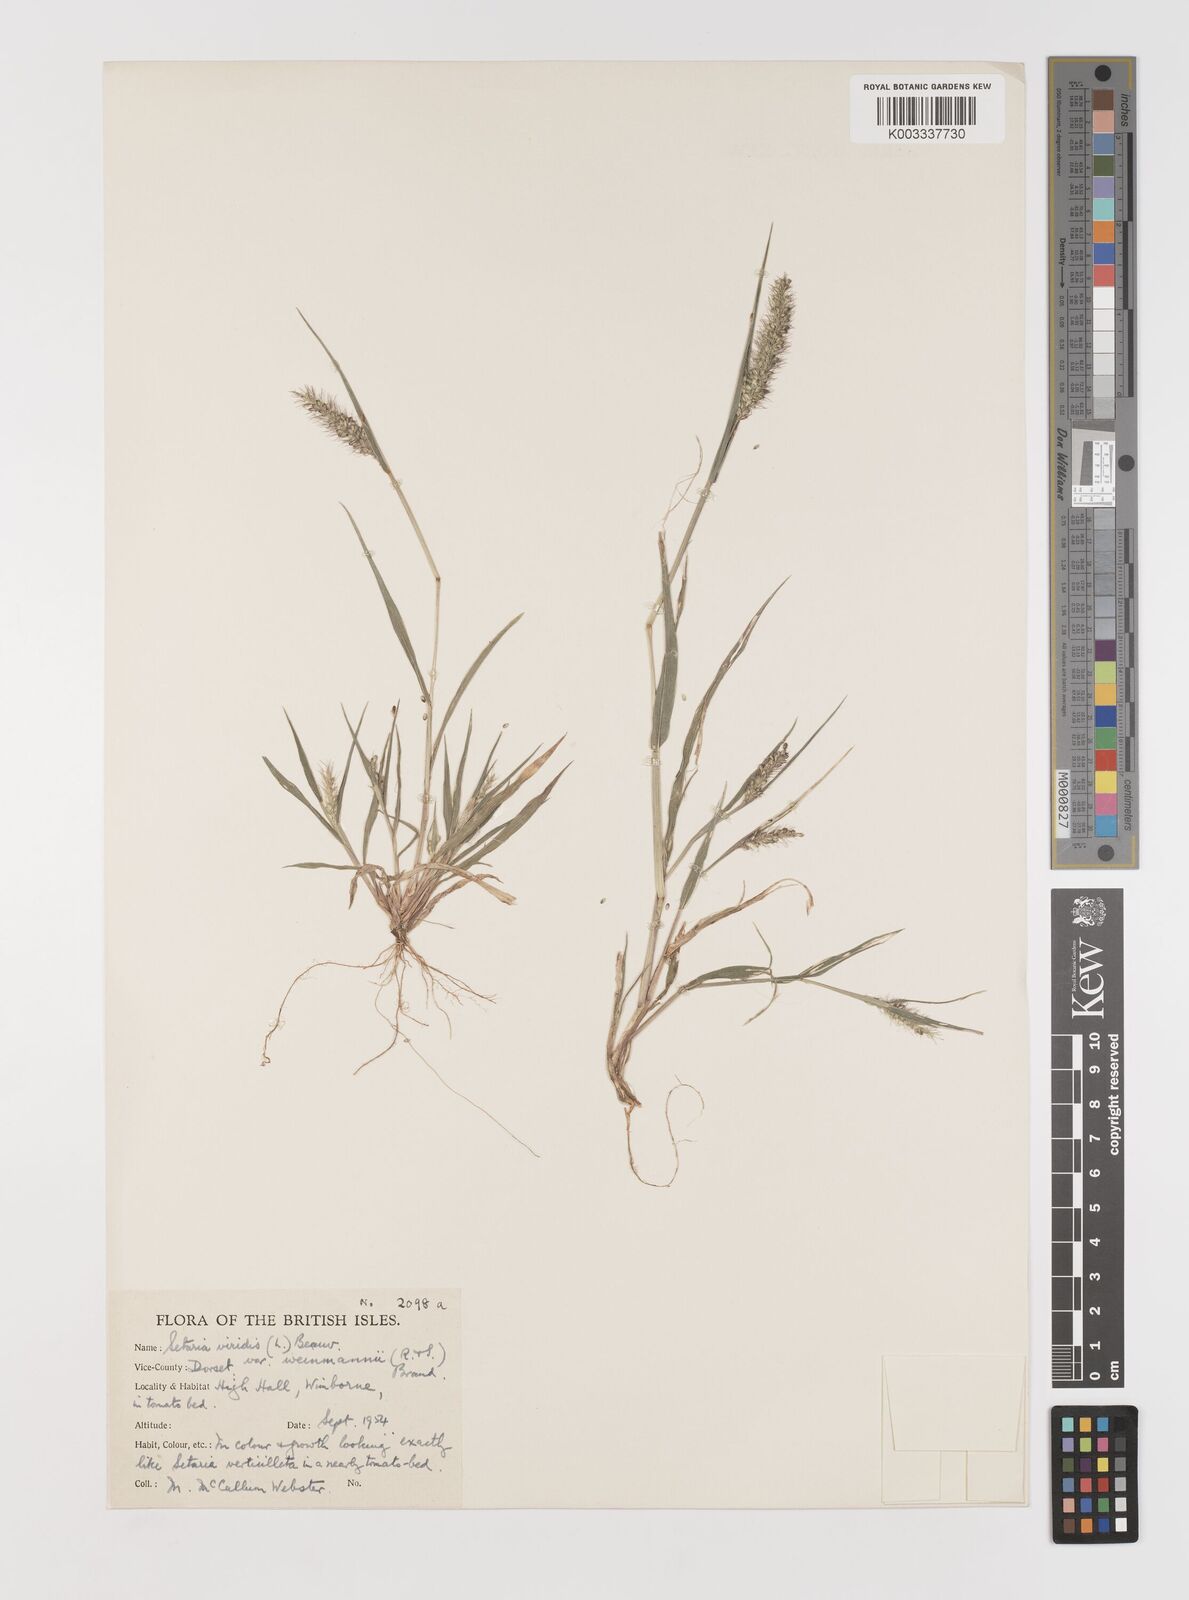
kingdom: Plantae
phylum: Tracheophyta
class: Liliopsida
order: Poales
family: Poaceae
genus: Setaria
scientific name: Setaria viridis
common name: Green bristlegrass
